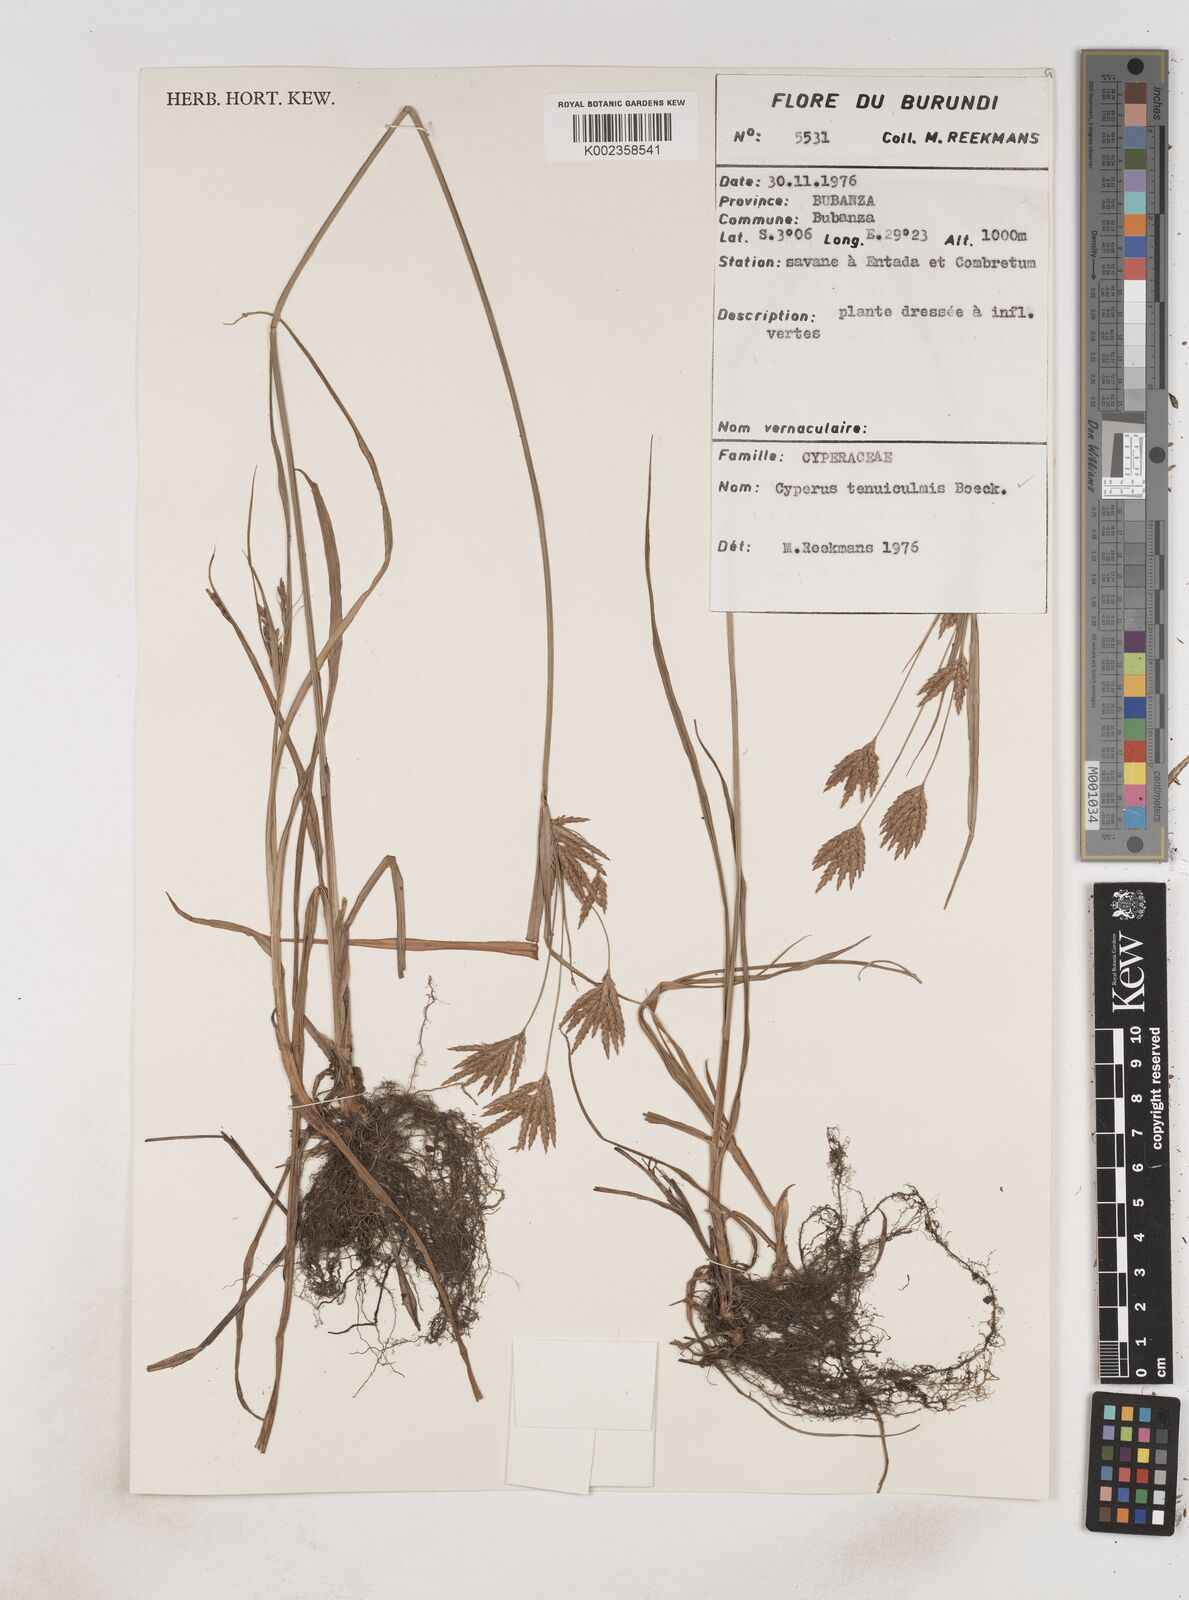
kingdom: Plantae
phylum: Tracheophyta
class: Liliopsida
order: Poales
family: Cyperaceae
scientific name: Cyperaceae
